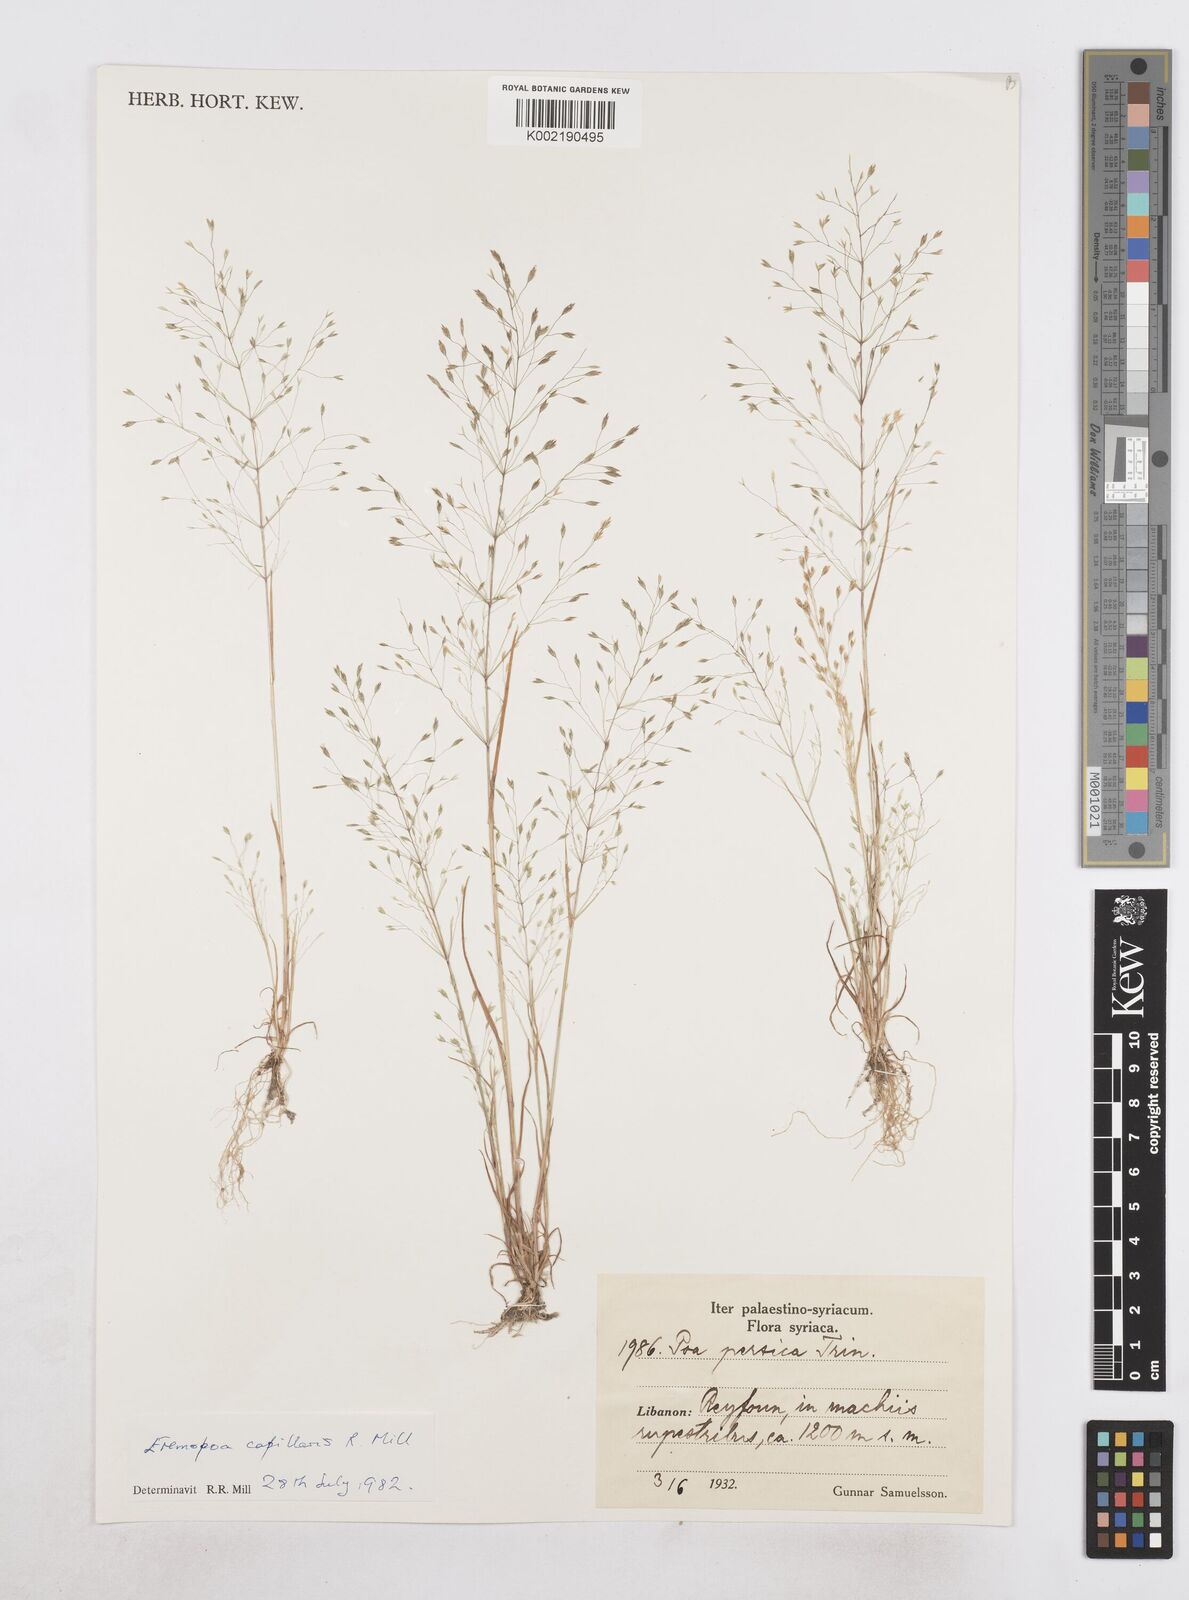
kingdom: Plantae
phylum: Tracheophyta
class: Liliopsida
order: Poales
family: Poaceae
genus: Poa
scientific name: Poa millii
